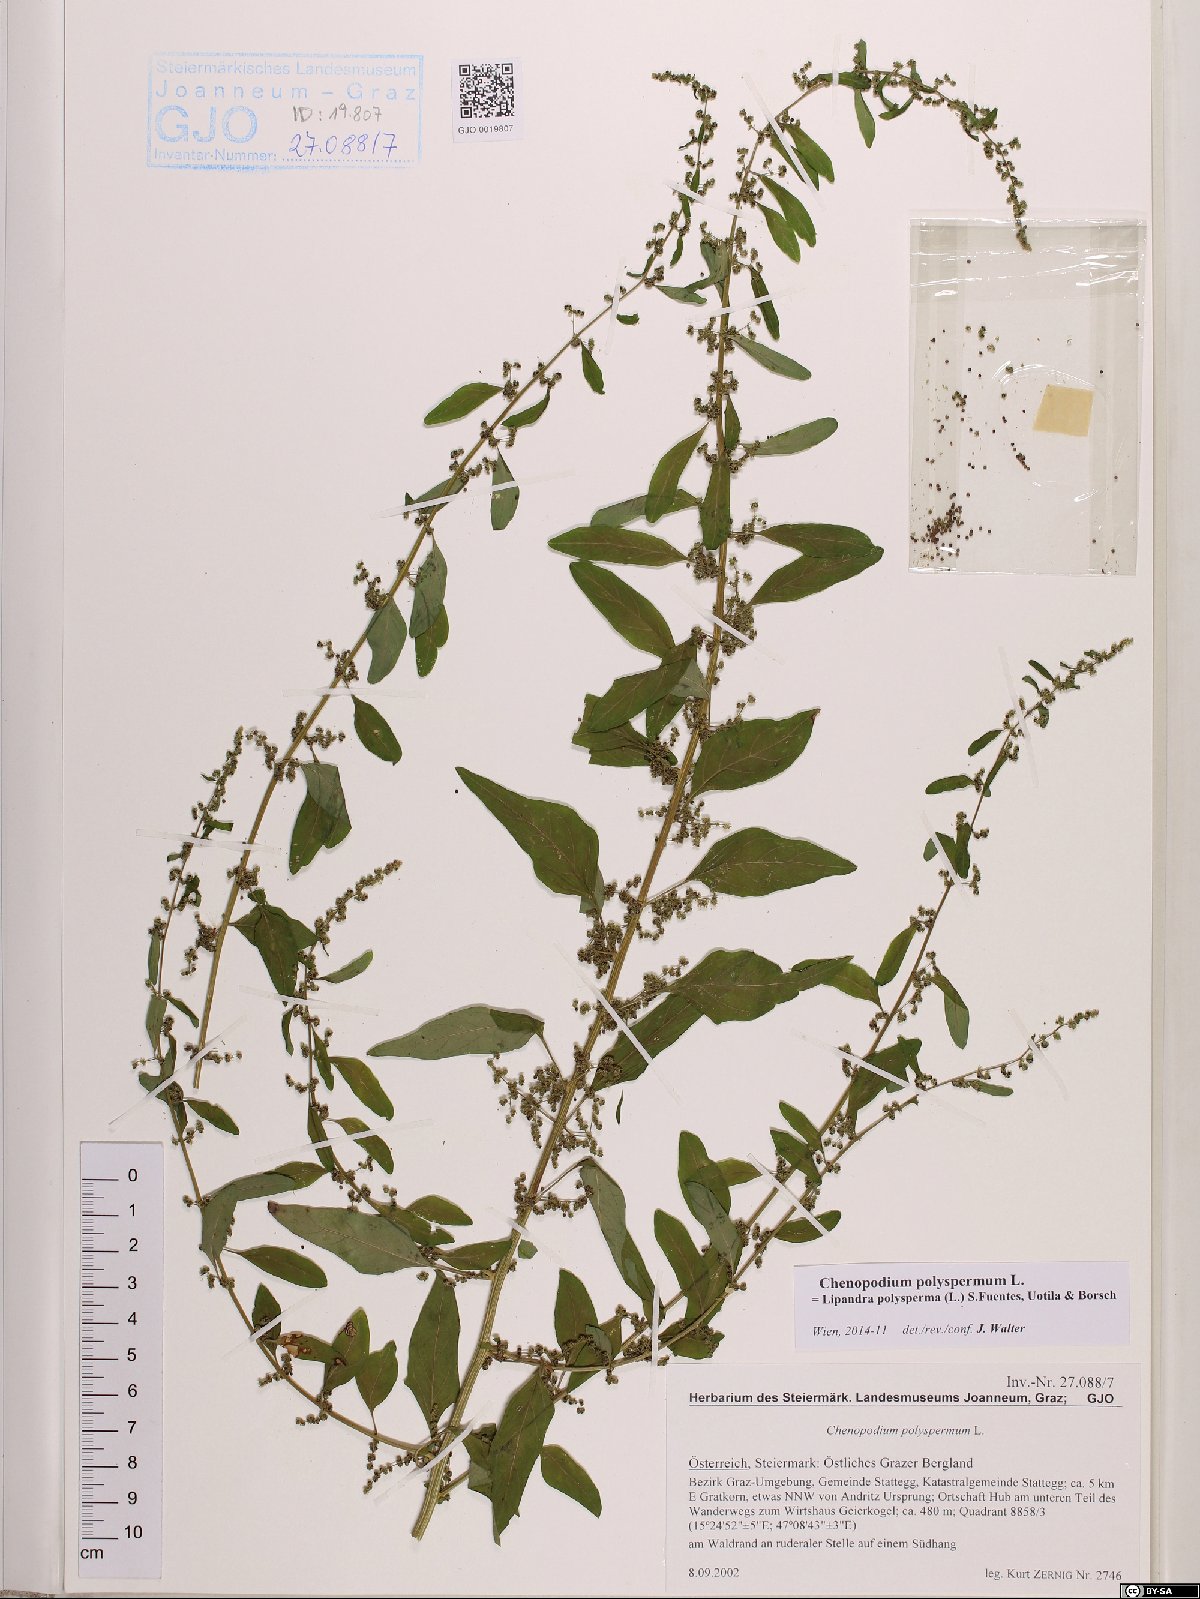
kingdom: Plantae
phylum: Tracheophyta
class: Magnoliopsida
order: Caryophyllales
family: Amaranthaceae
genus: Lipandra
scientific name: Lipandra polysperma
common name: Many-seed goosefoot
